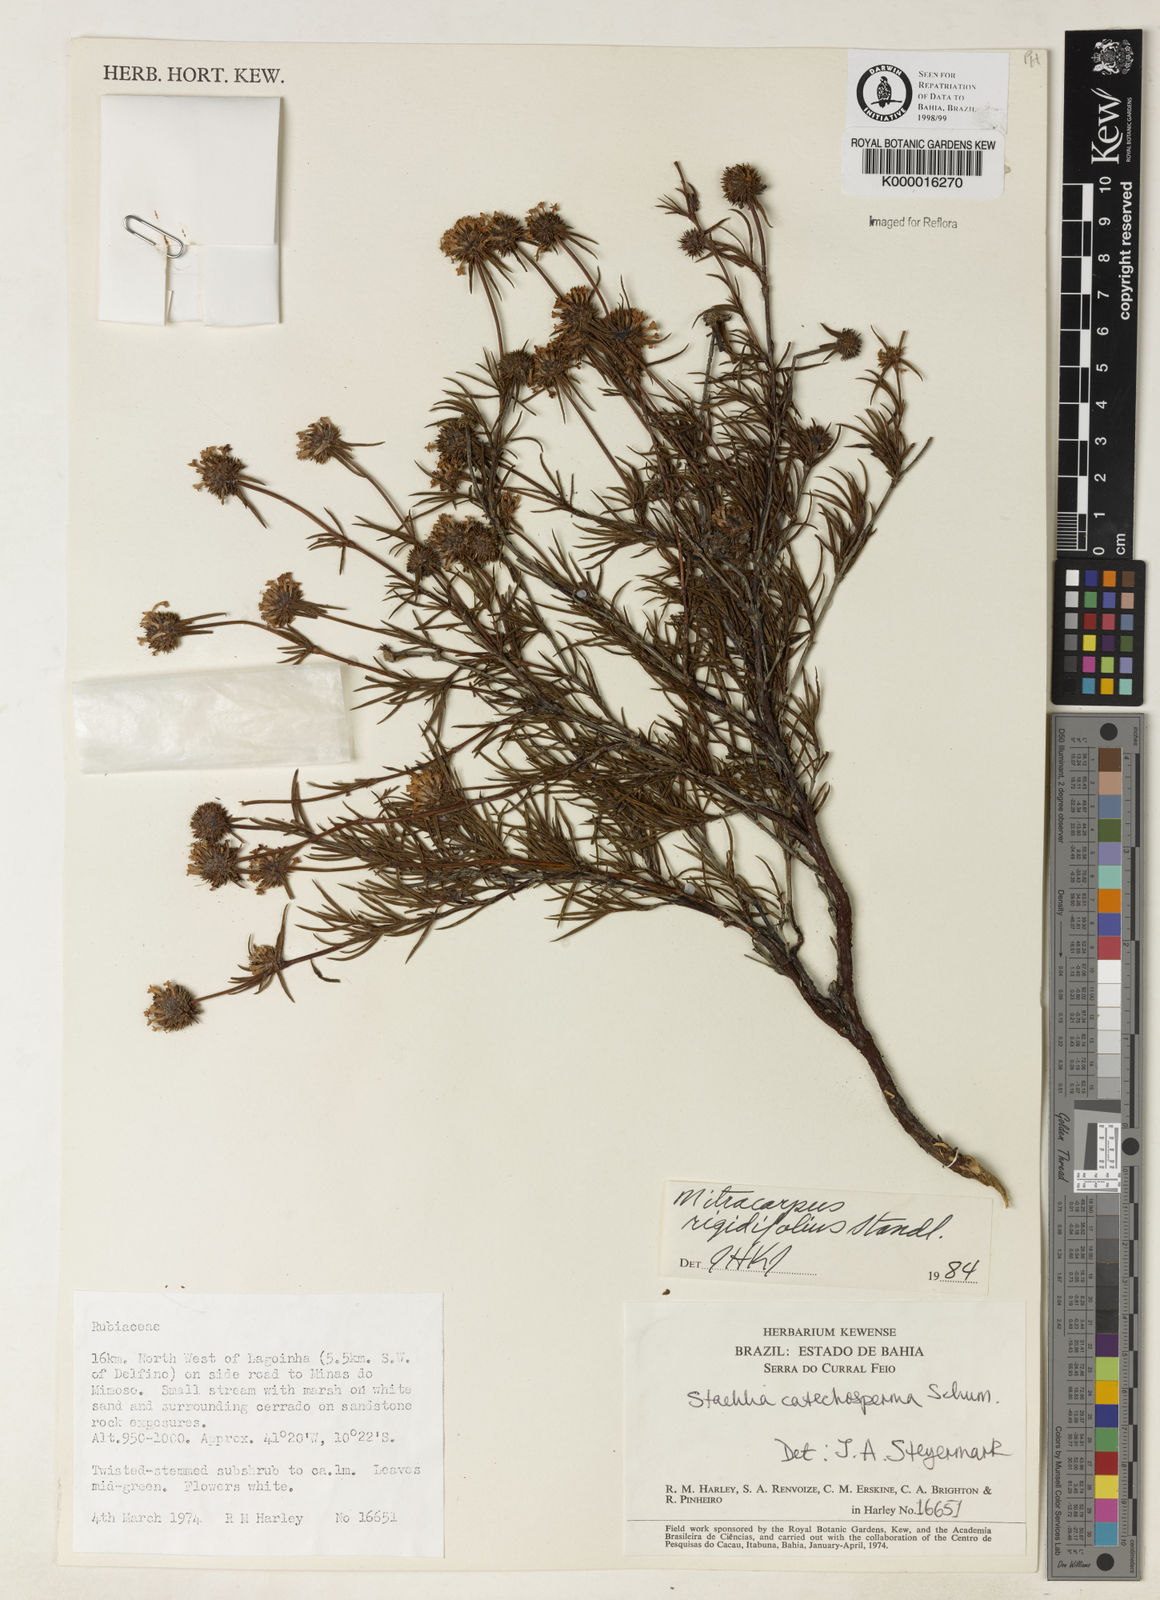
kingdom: Plantae
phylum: Tracheophyta
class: Magnoliopsida
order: Gentianales
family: Rubiaceae
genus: Mitracarpus
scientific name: Mitracarpus rigidifolius
